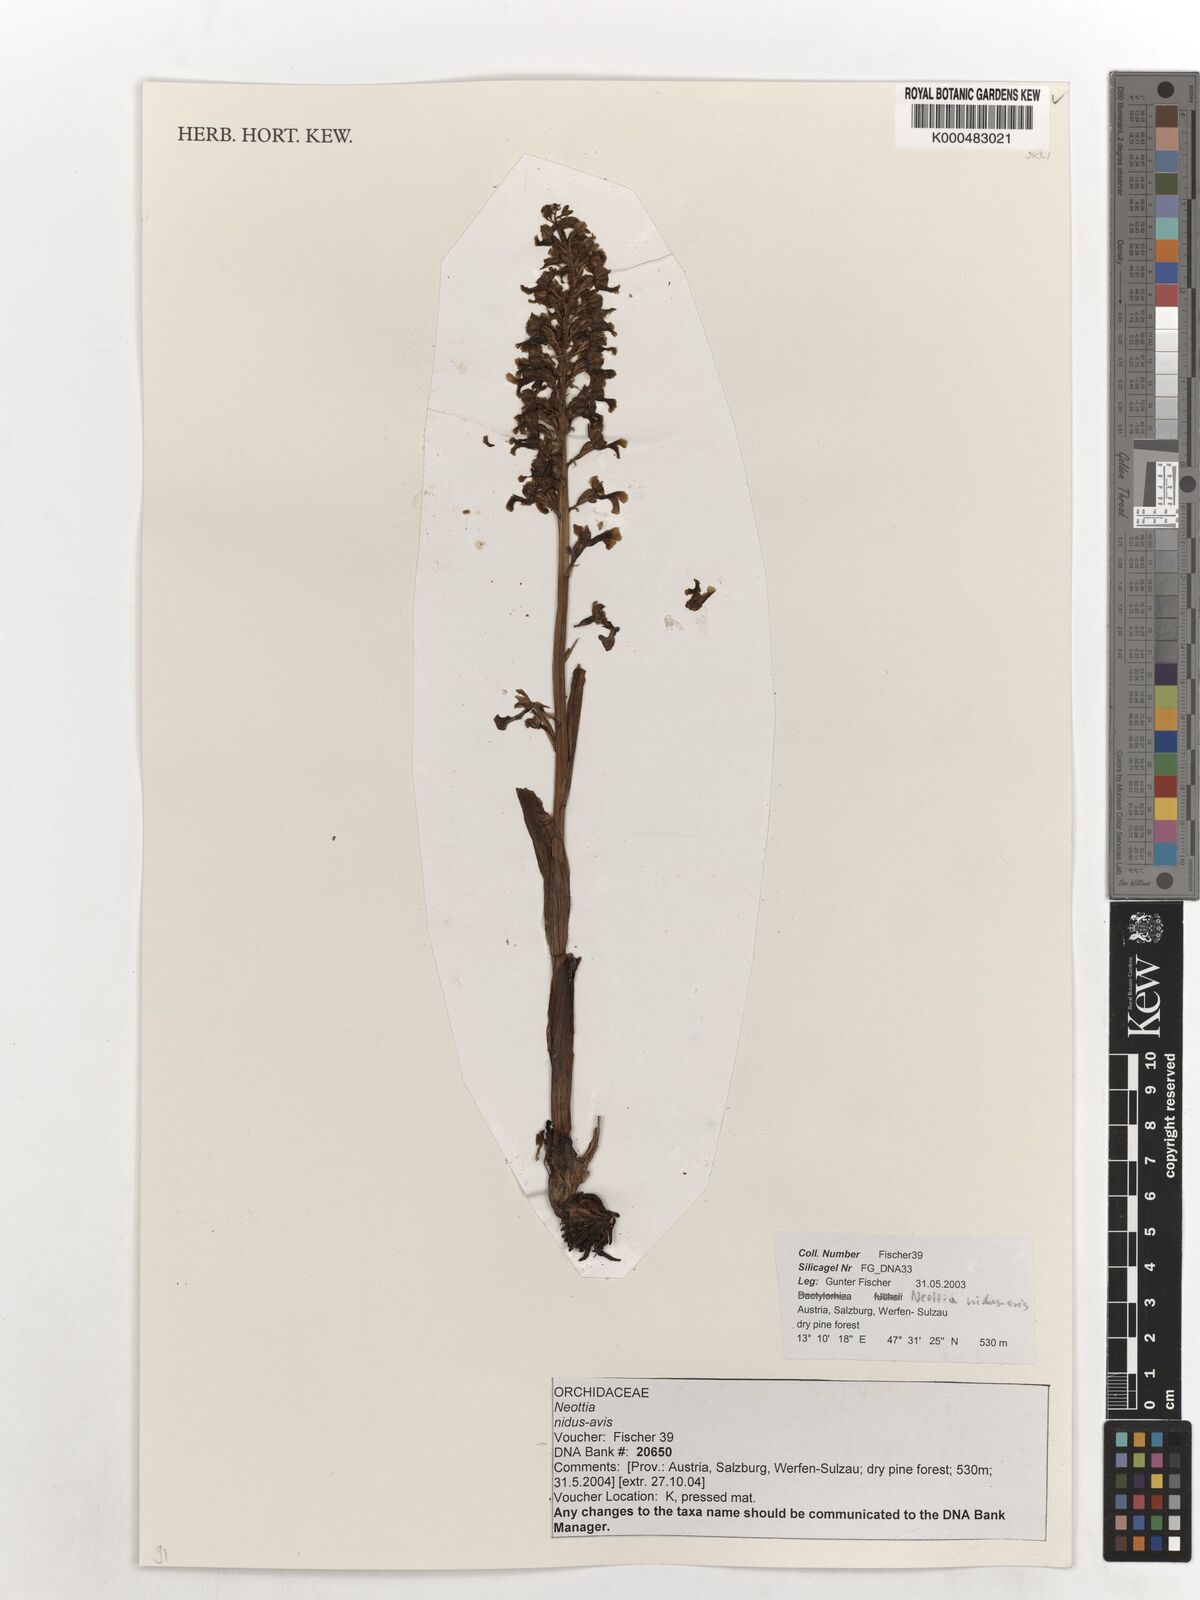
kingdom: Plantae
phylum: Tracheophyta
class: Liliopsida
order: Asparagales
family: Orchidaceae
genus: Neottia
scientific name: Neottia nidus-avis
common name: Bird's-nest orchid
